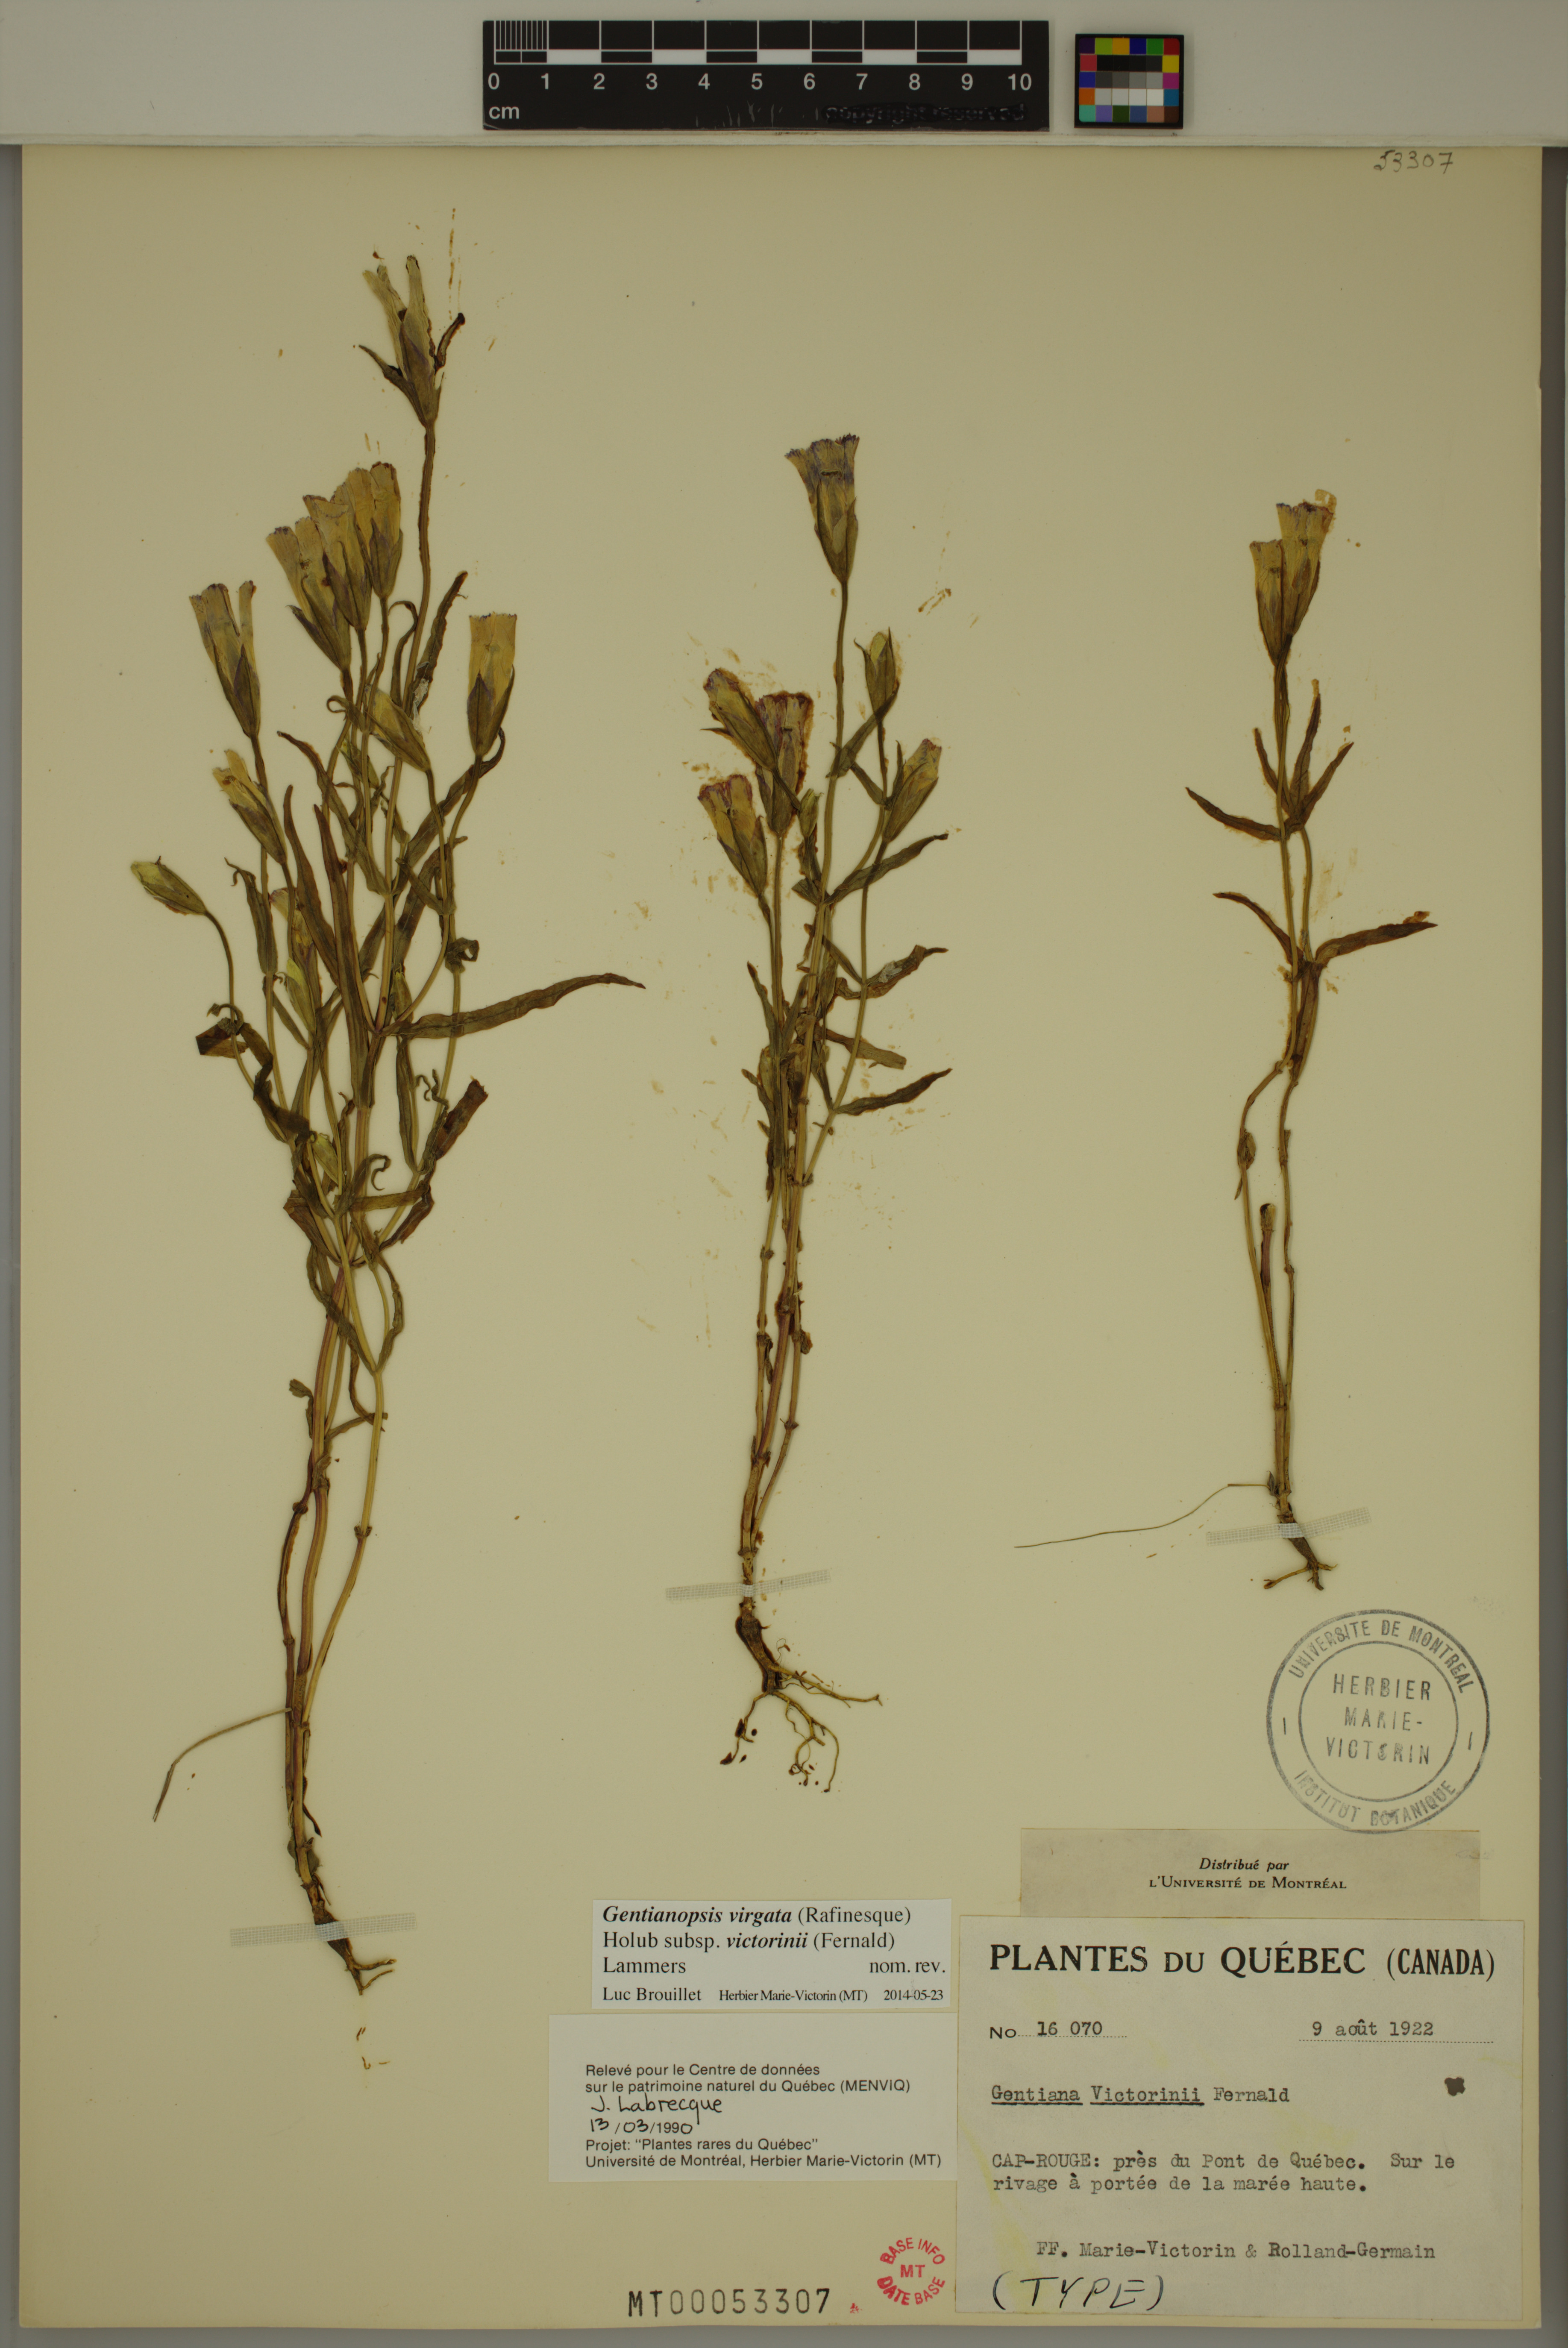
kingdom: Plantae
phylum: Tracheophyta
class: Magnoliopsida
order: Gentianales
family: Gentianaceae
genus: Gentianopsis
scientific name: Gentianopsis victorinii
